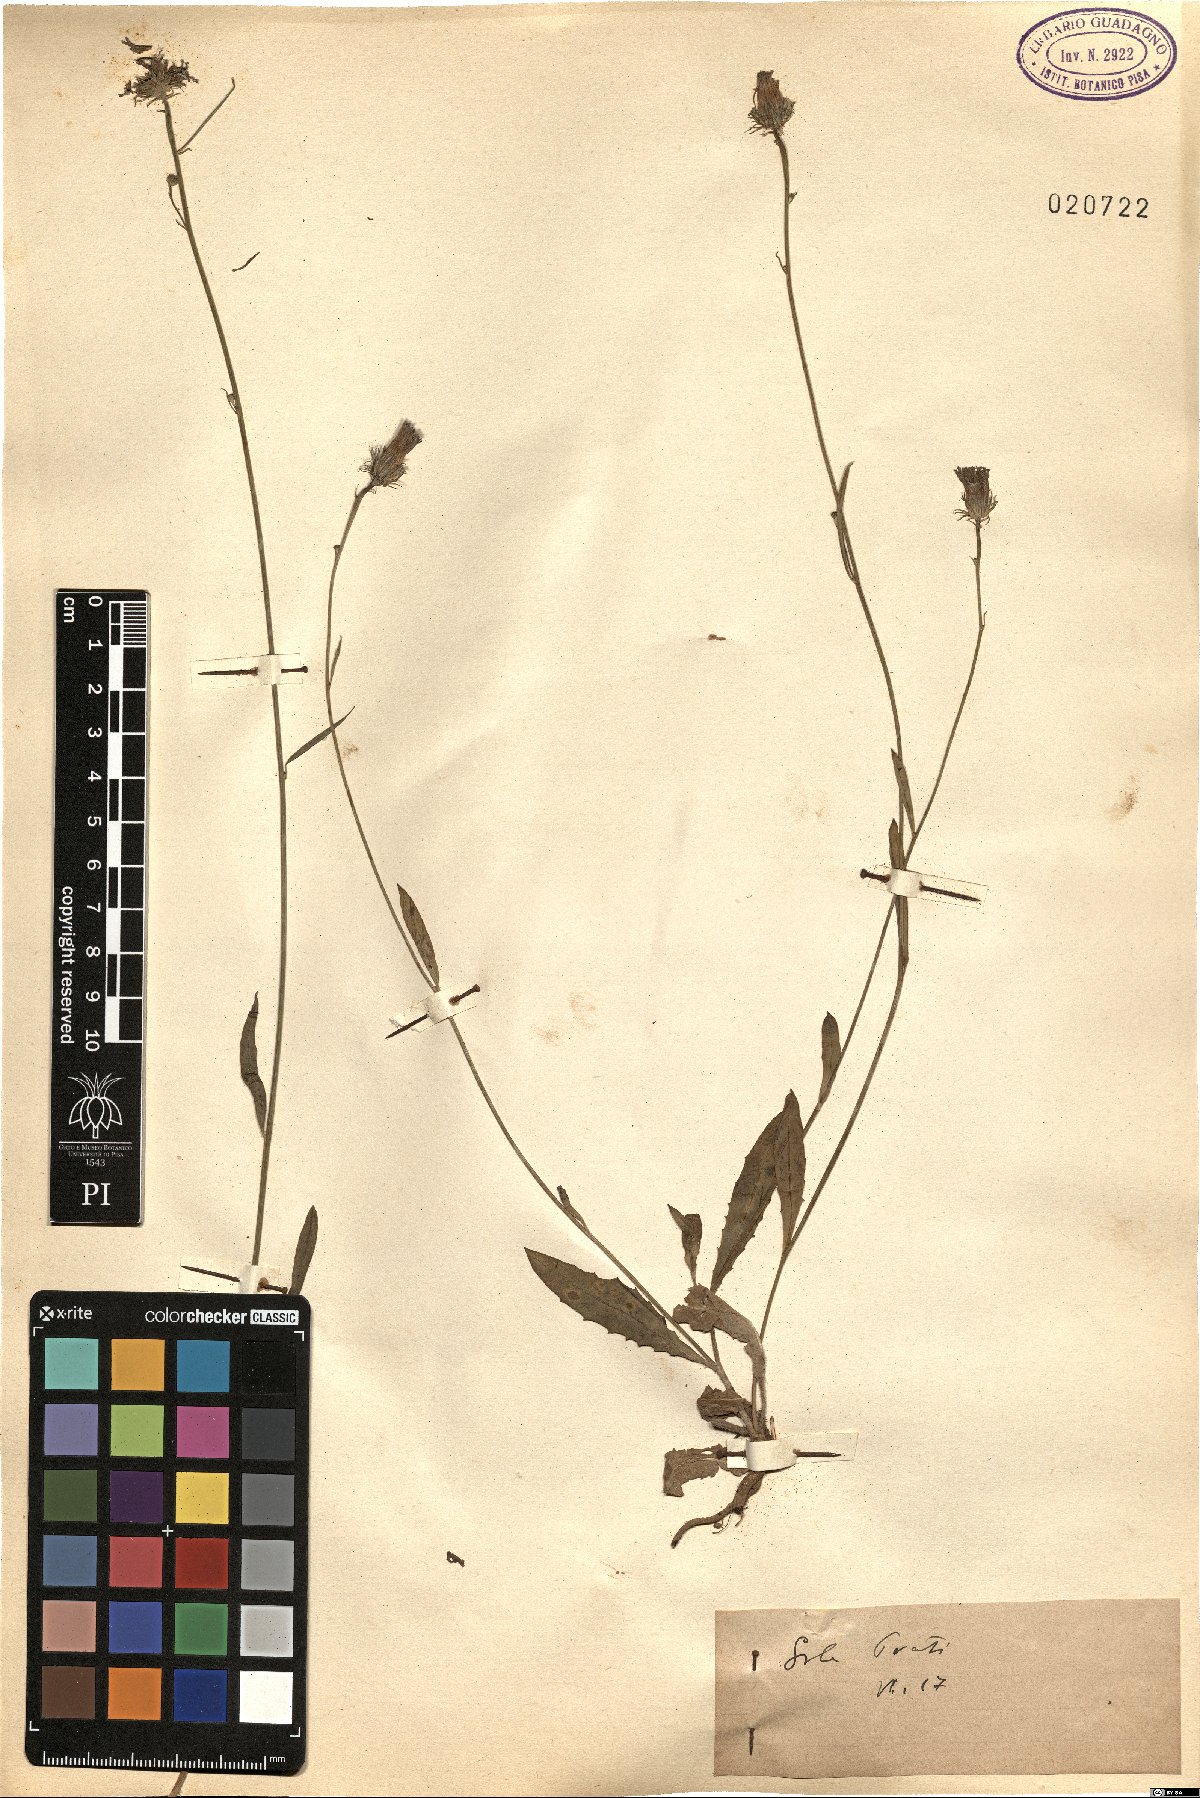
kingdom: Plantae
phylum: Tracheophyta
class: Magnoliopsida
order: Asterales
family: Asteraceae
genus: Tolpis
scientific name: Tolpis
